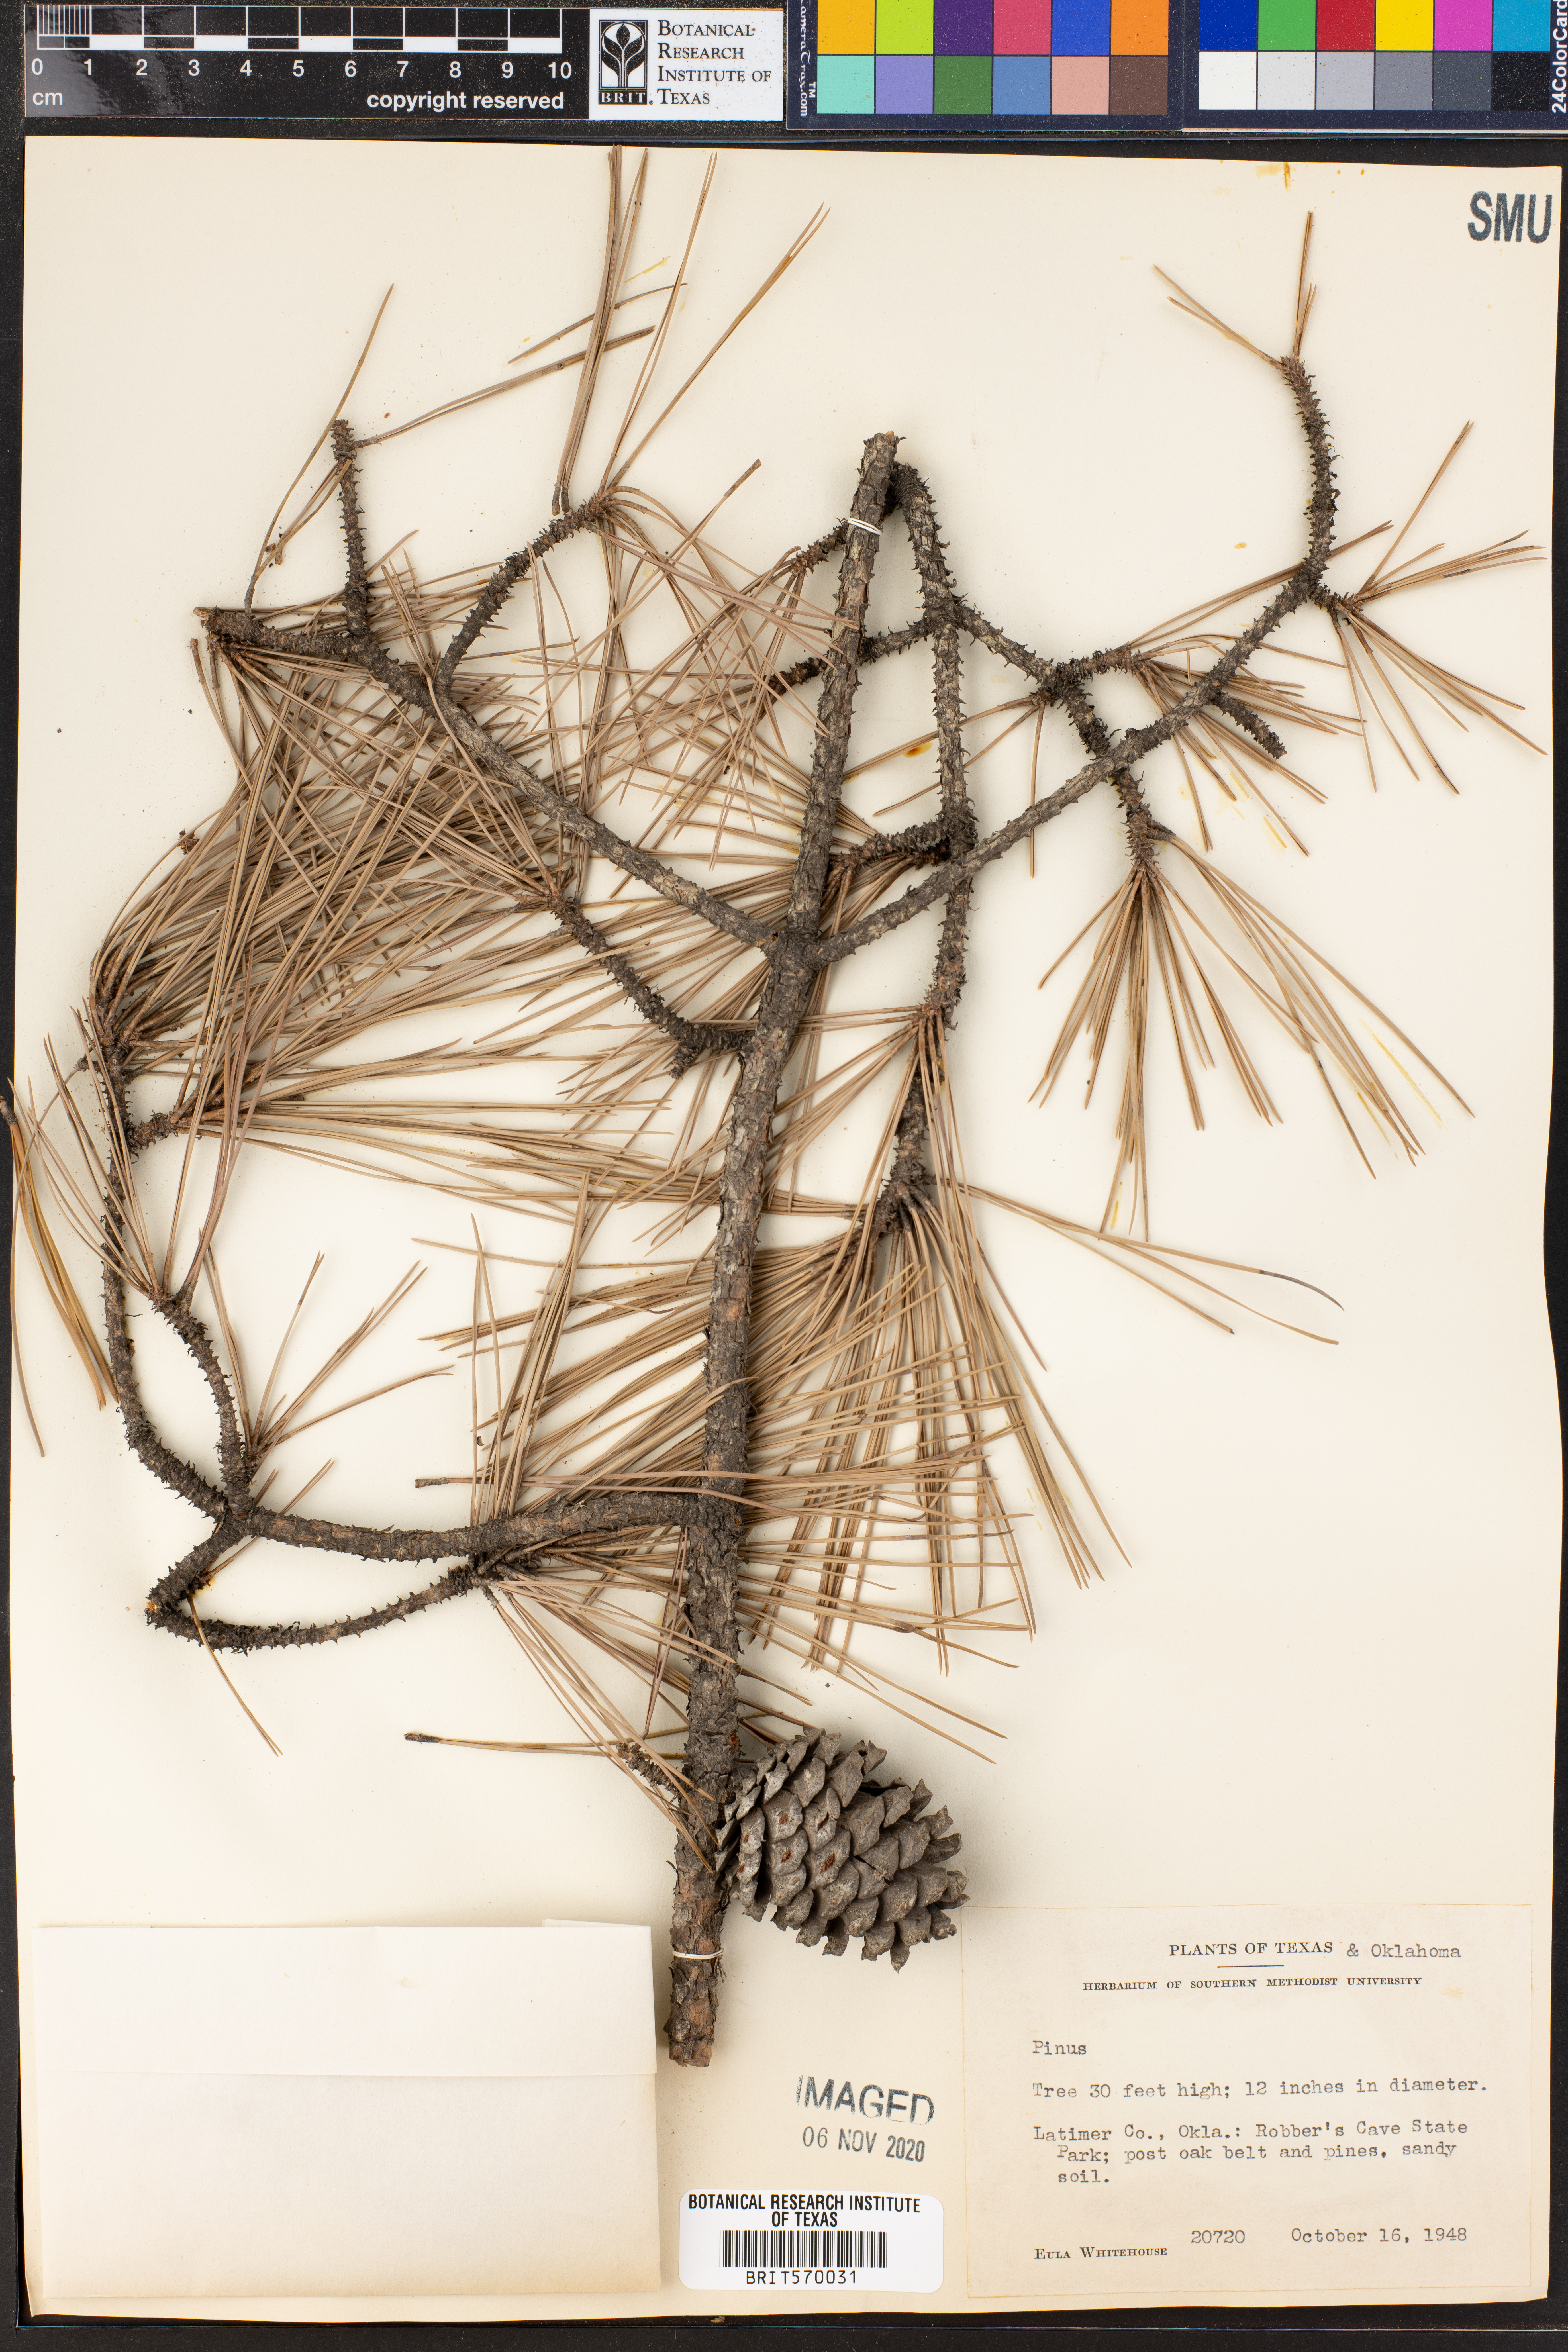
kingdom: Plantae
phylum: Tracheophyta
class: Pinopsida
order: Pinales
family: Pinaceae
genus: Pinus
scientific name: Pinus
